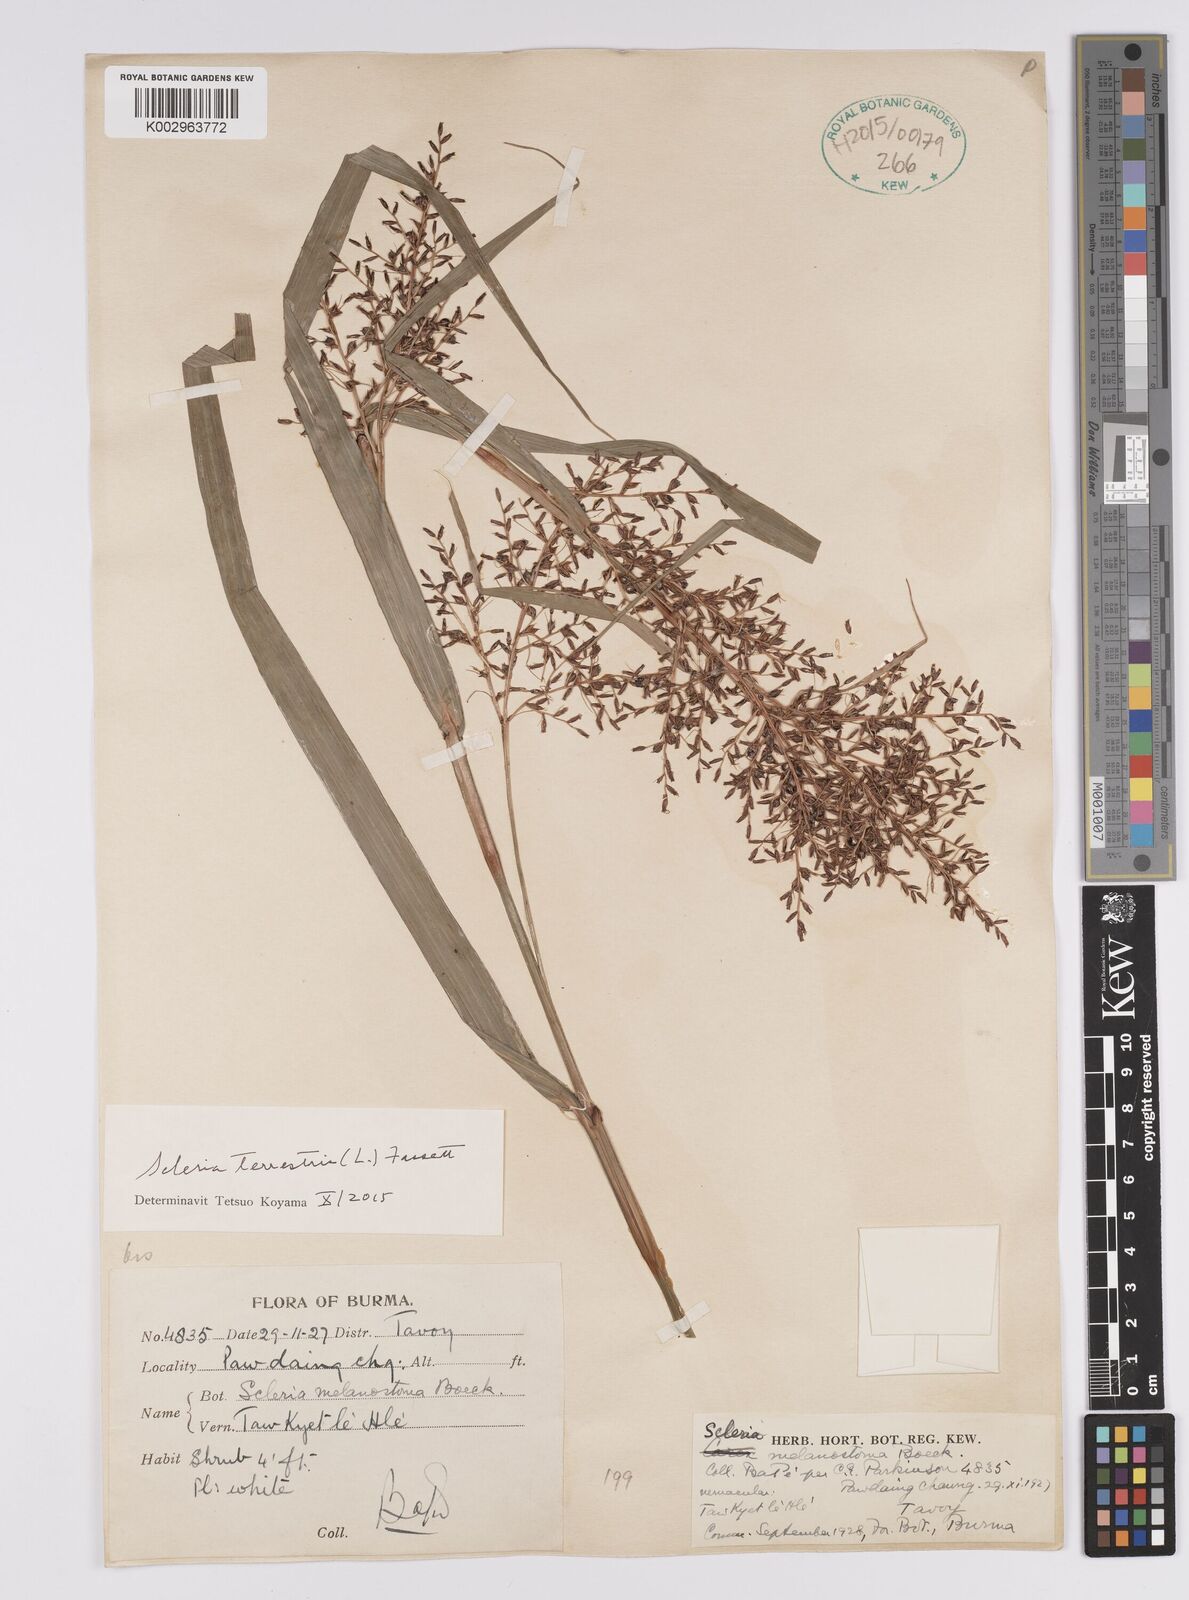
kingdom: Plantae
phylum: Tracheophyta
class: Liliopsida
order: Poales
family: Cyperaceae
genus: Scleria
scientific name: Scleria terrestris
